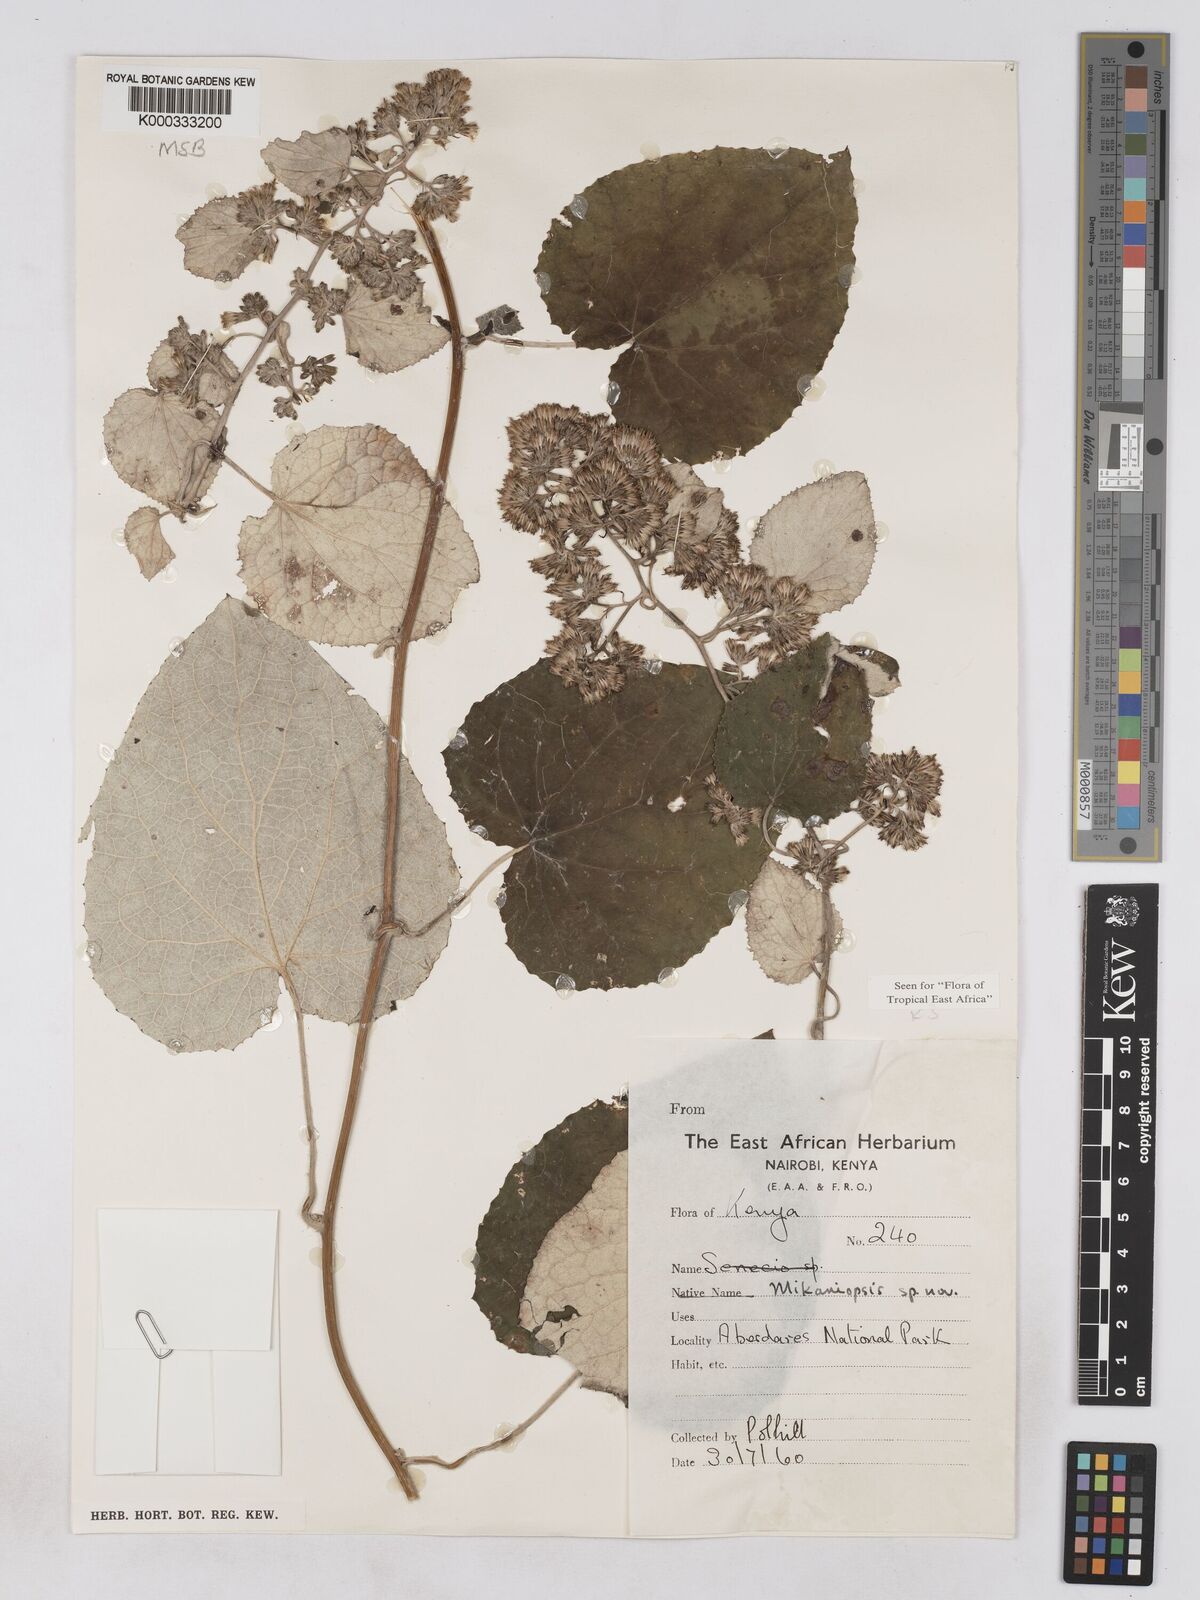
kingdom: Plantae
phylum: Tracheophyta
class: Magnoliopsida
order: Asterales
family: Asteraceae
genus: Mikaniopsis
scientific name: Mikaniopsis bambuseti
